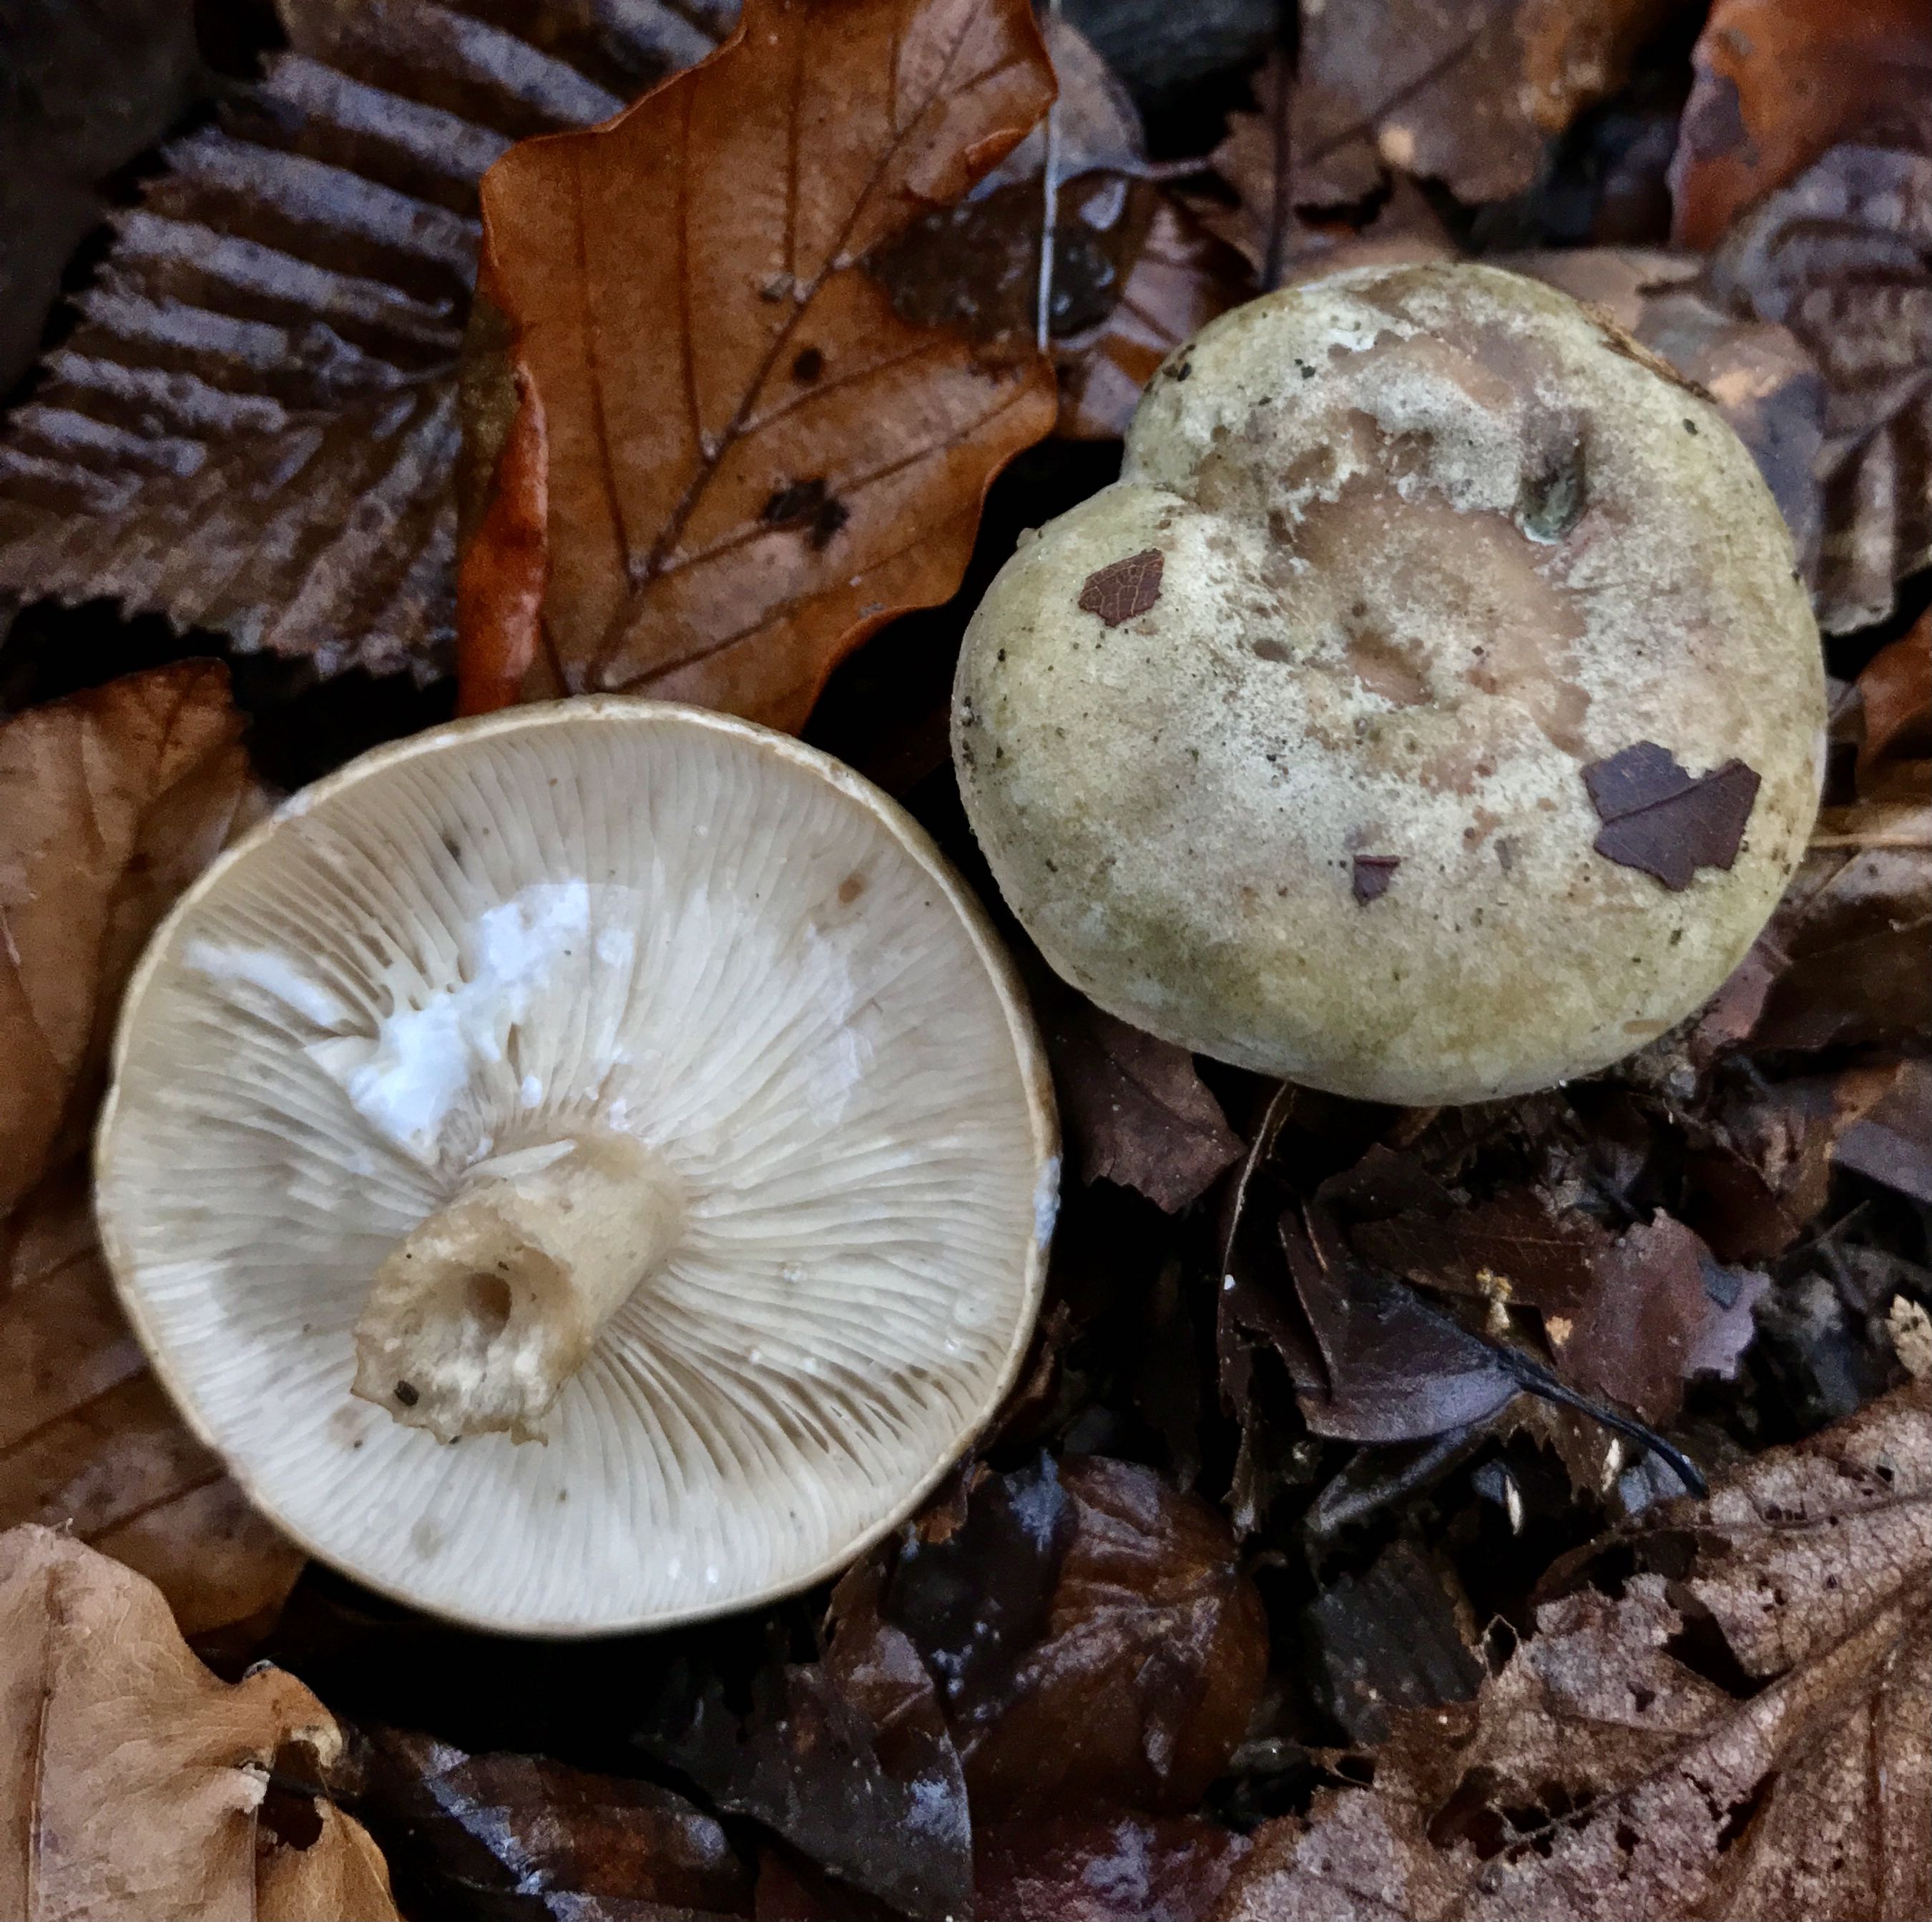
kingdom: Fungi
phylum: Basidiomycota
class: Agaricomycetes
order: Russulales
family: Russulaceae
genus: Lactarius
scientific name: Lactarius blennius
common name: dråbeplettet mælkehat
